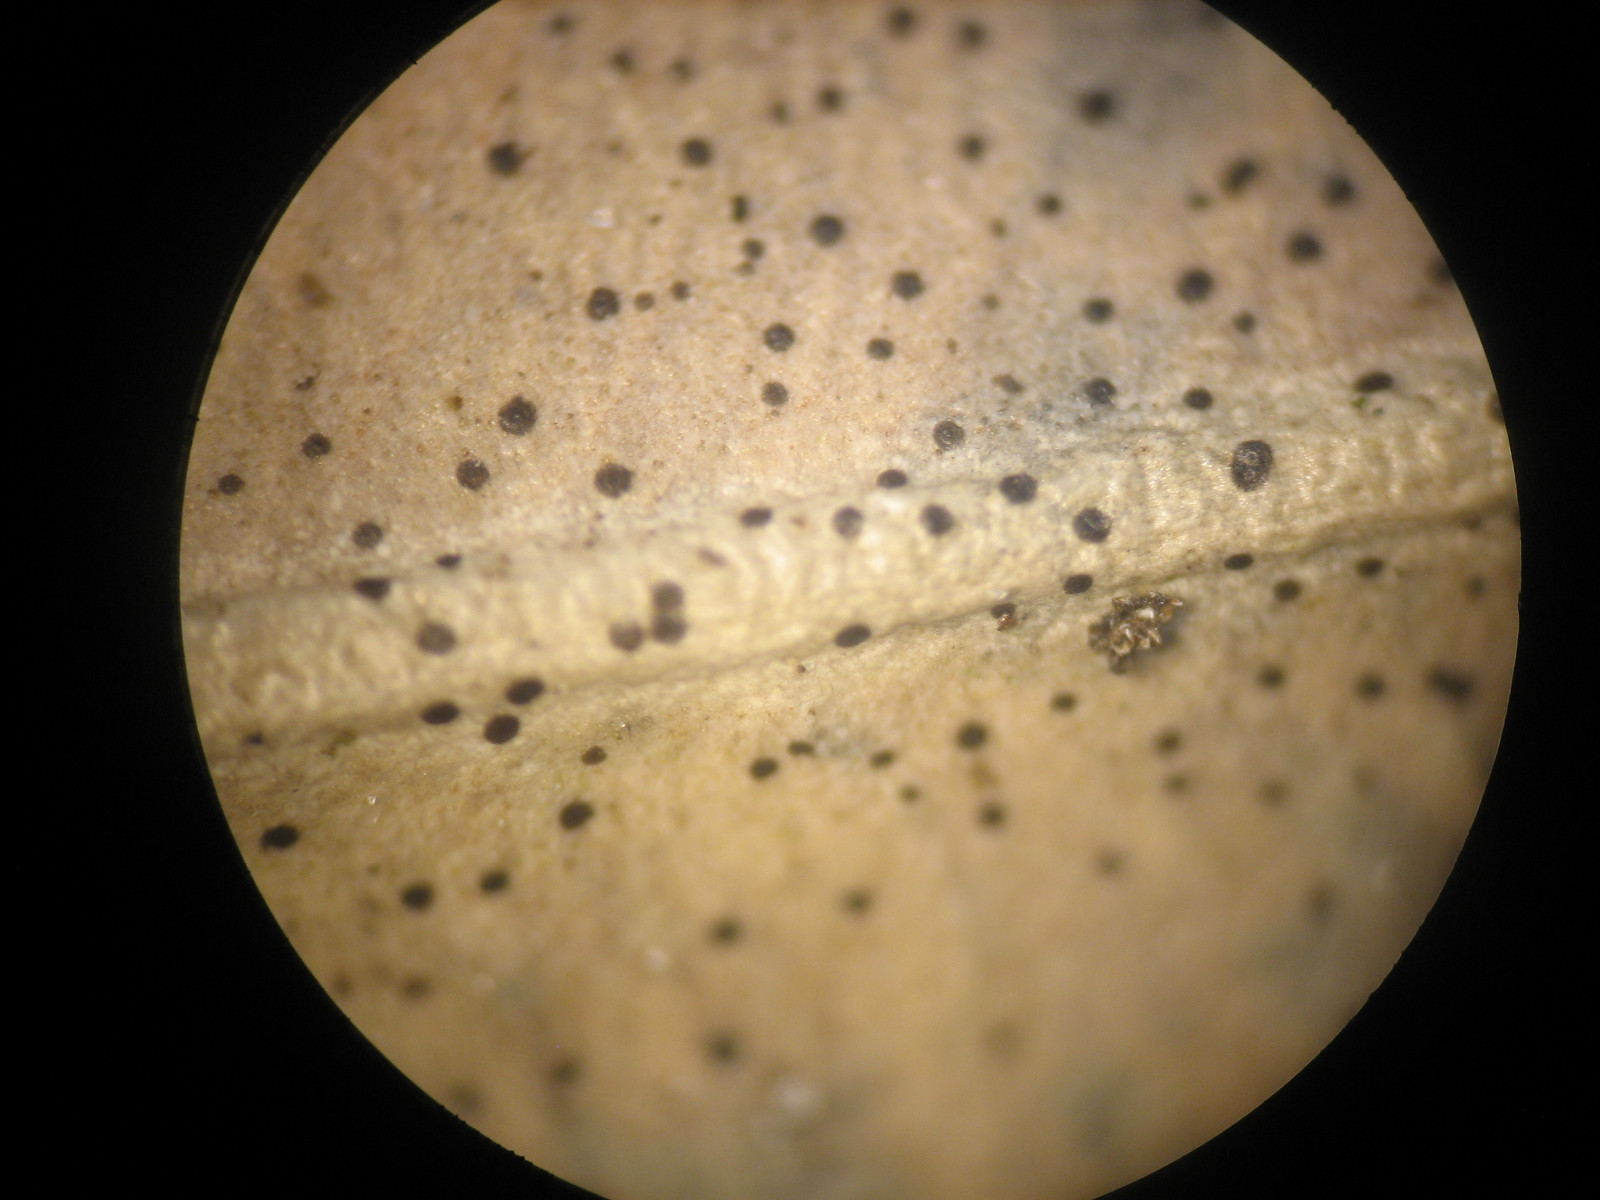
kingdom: Fungi
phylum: Ascomycota
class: Dothideomycetes
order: Microthyriales
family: Microthyriaceae
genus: Microthyrium
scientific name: Microthyrium macrosporum
